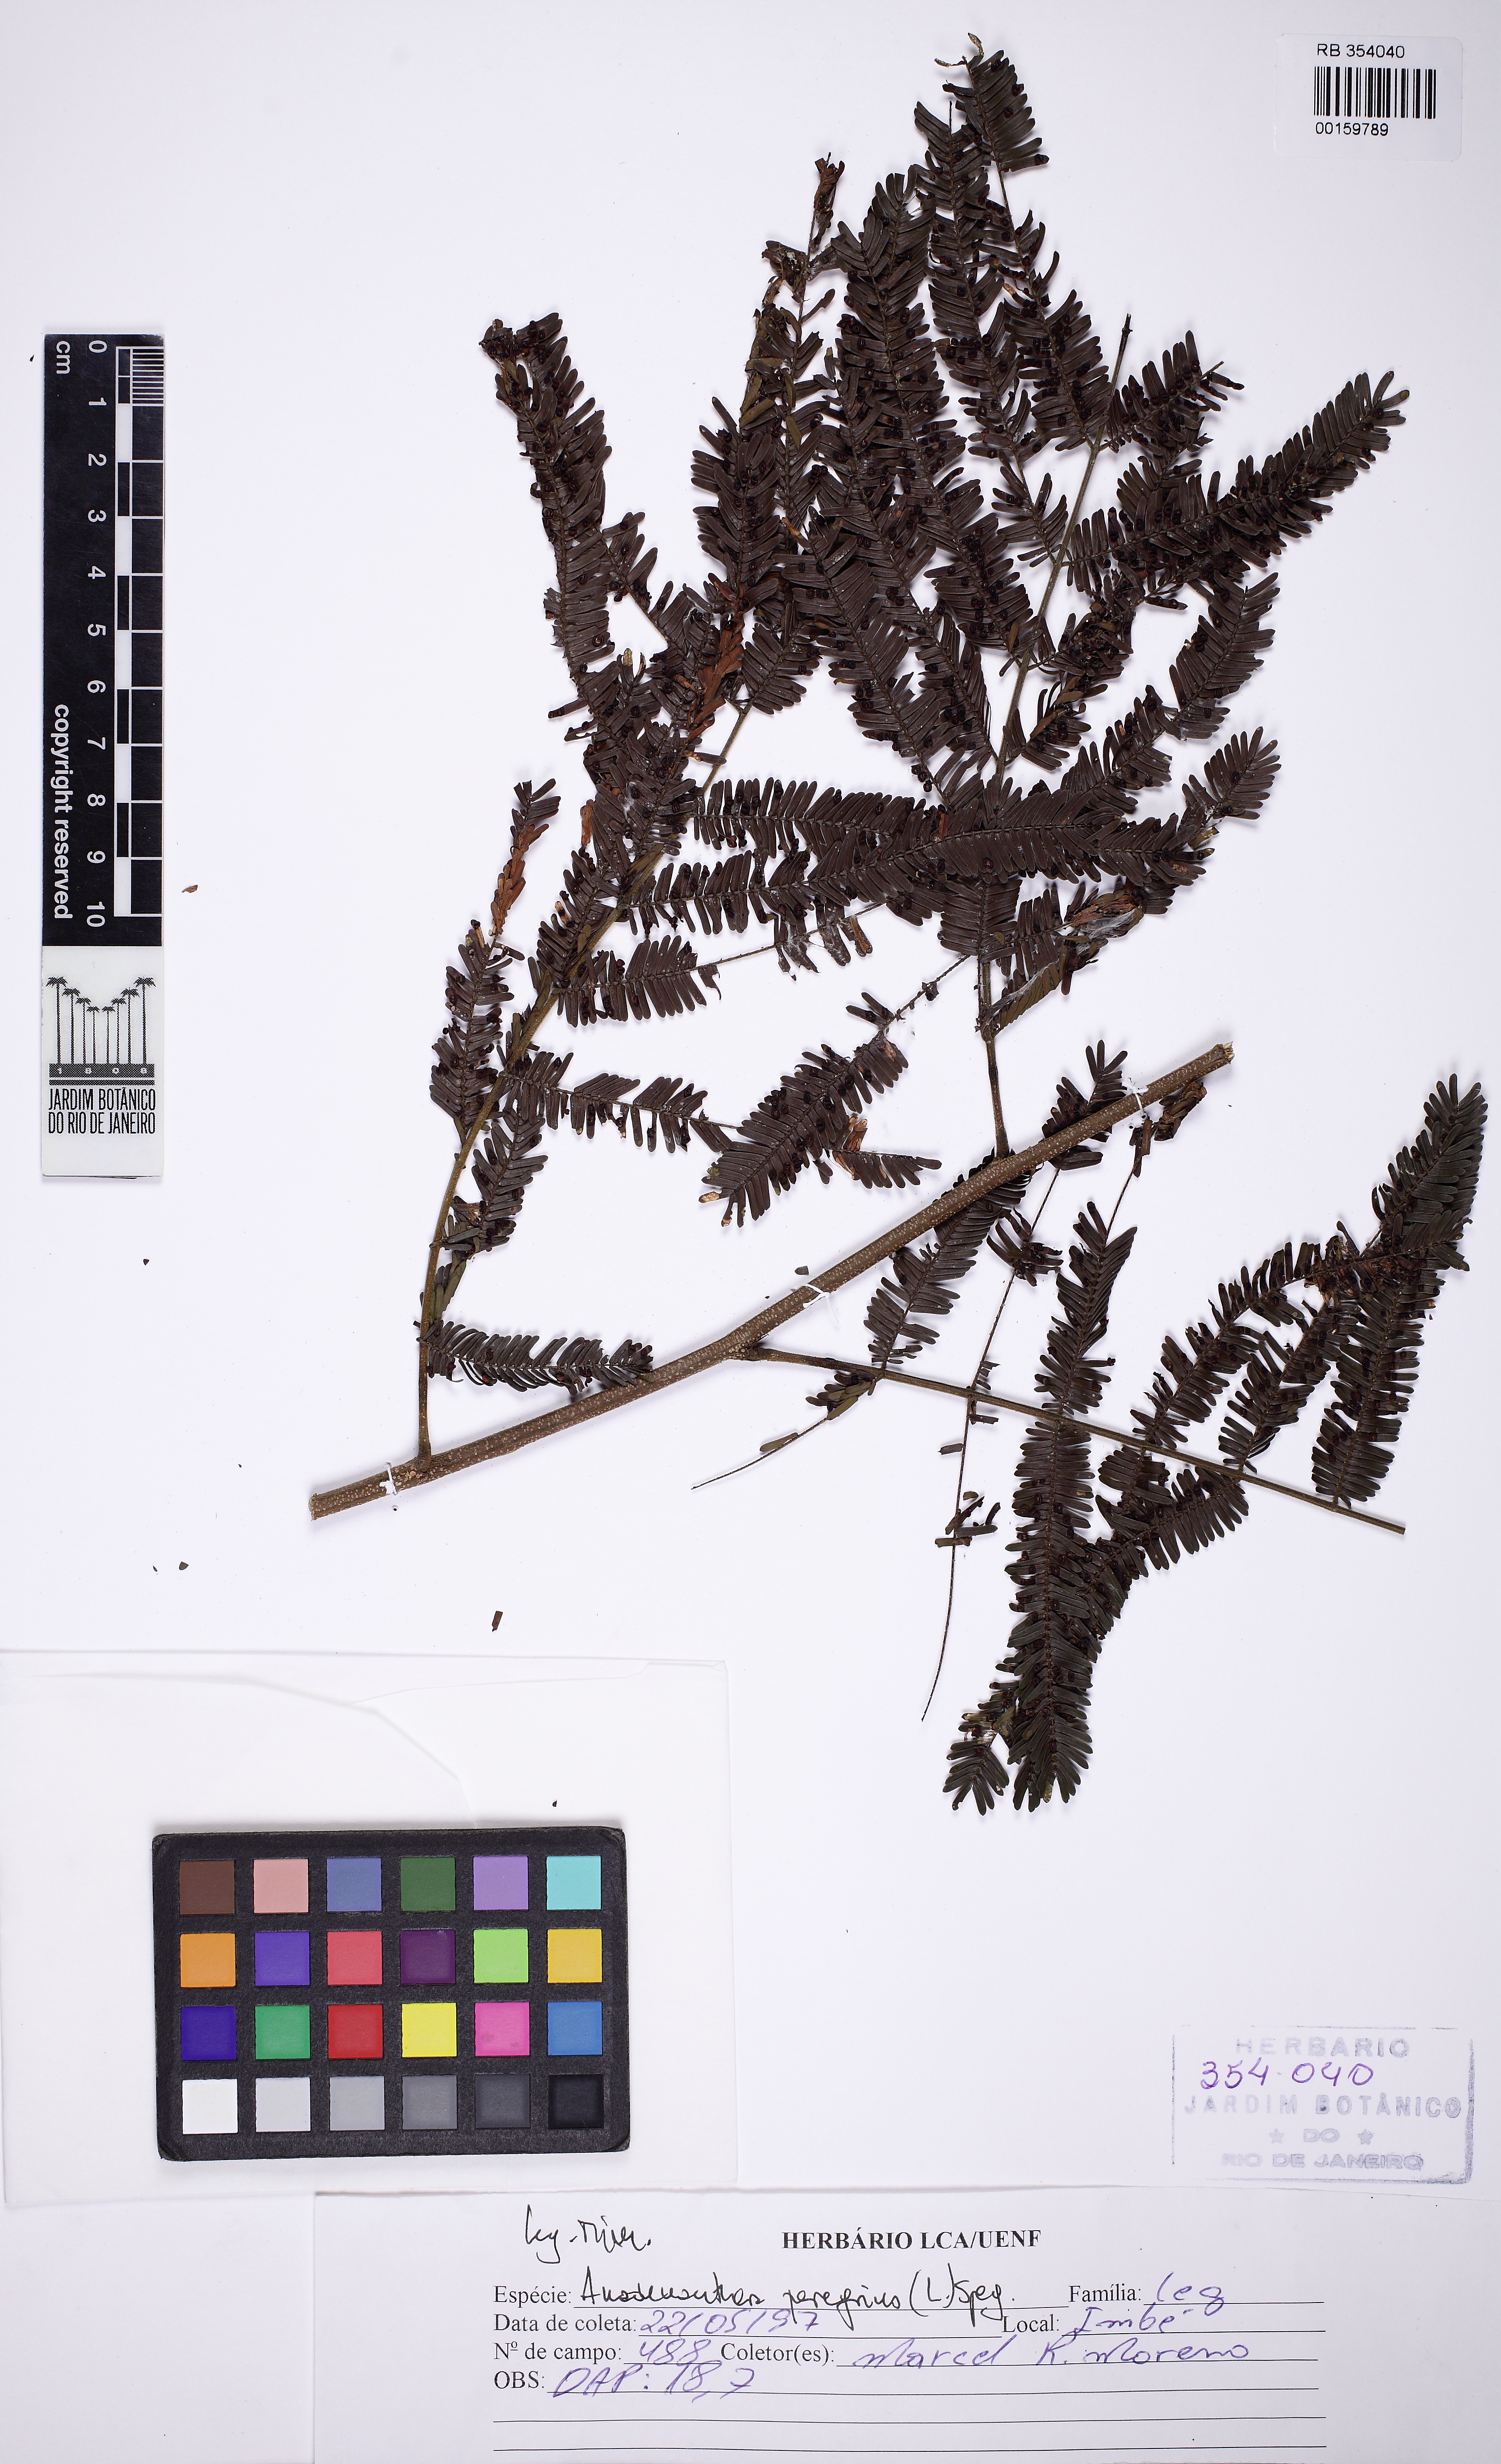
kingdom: Plantae
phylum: Tracheophyta
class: Magnoliopsida
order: Fabales
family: Fabaceae
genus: Anadenanthera
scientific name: Anadenanthera peregrina
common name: Cohoba
